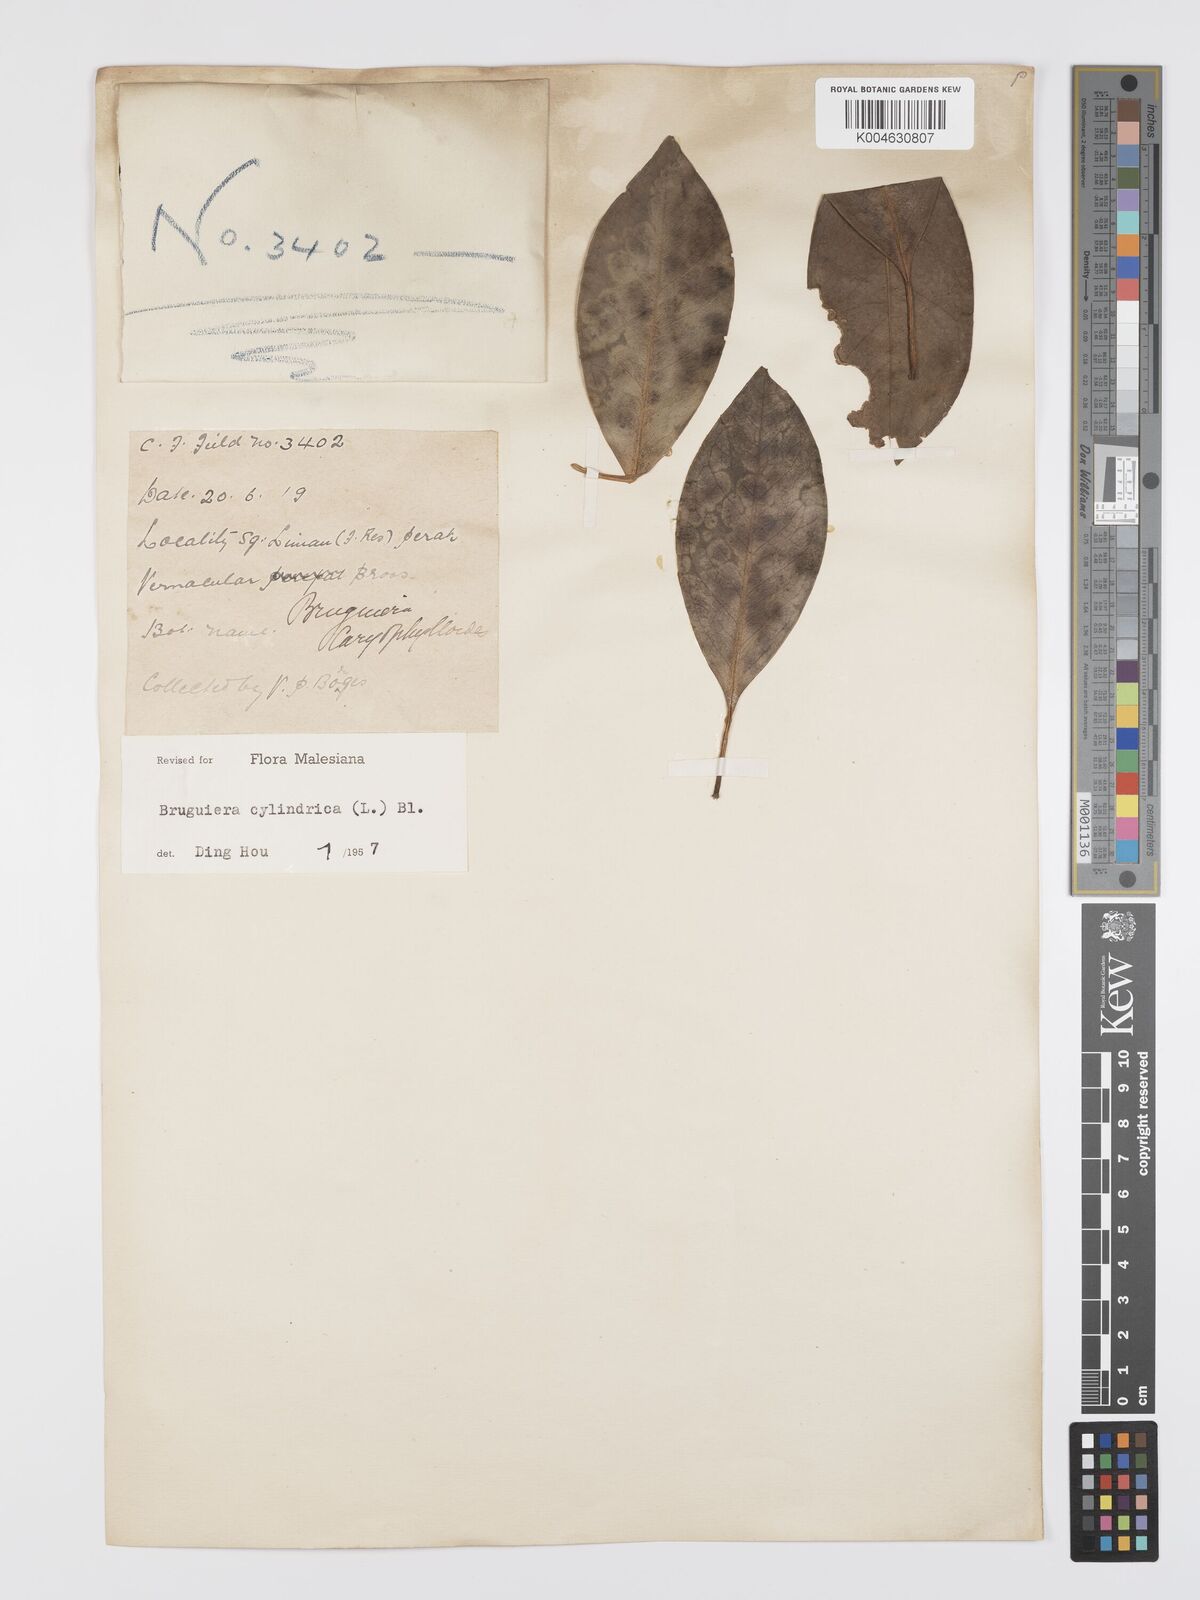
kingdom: Plantae
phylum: Tracheophyta
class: Magnoliopsida
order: Malpighiales
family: Rhizophoraceae
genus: Bruguiera
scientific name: Bruguiera cylindrica
